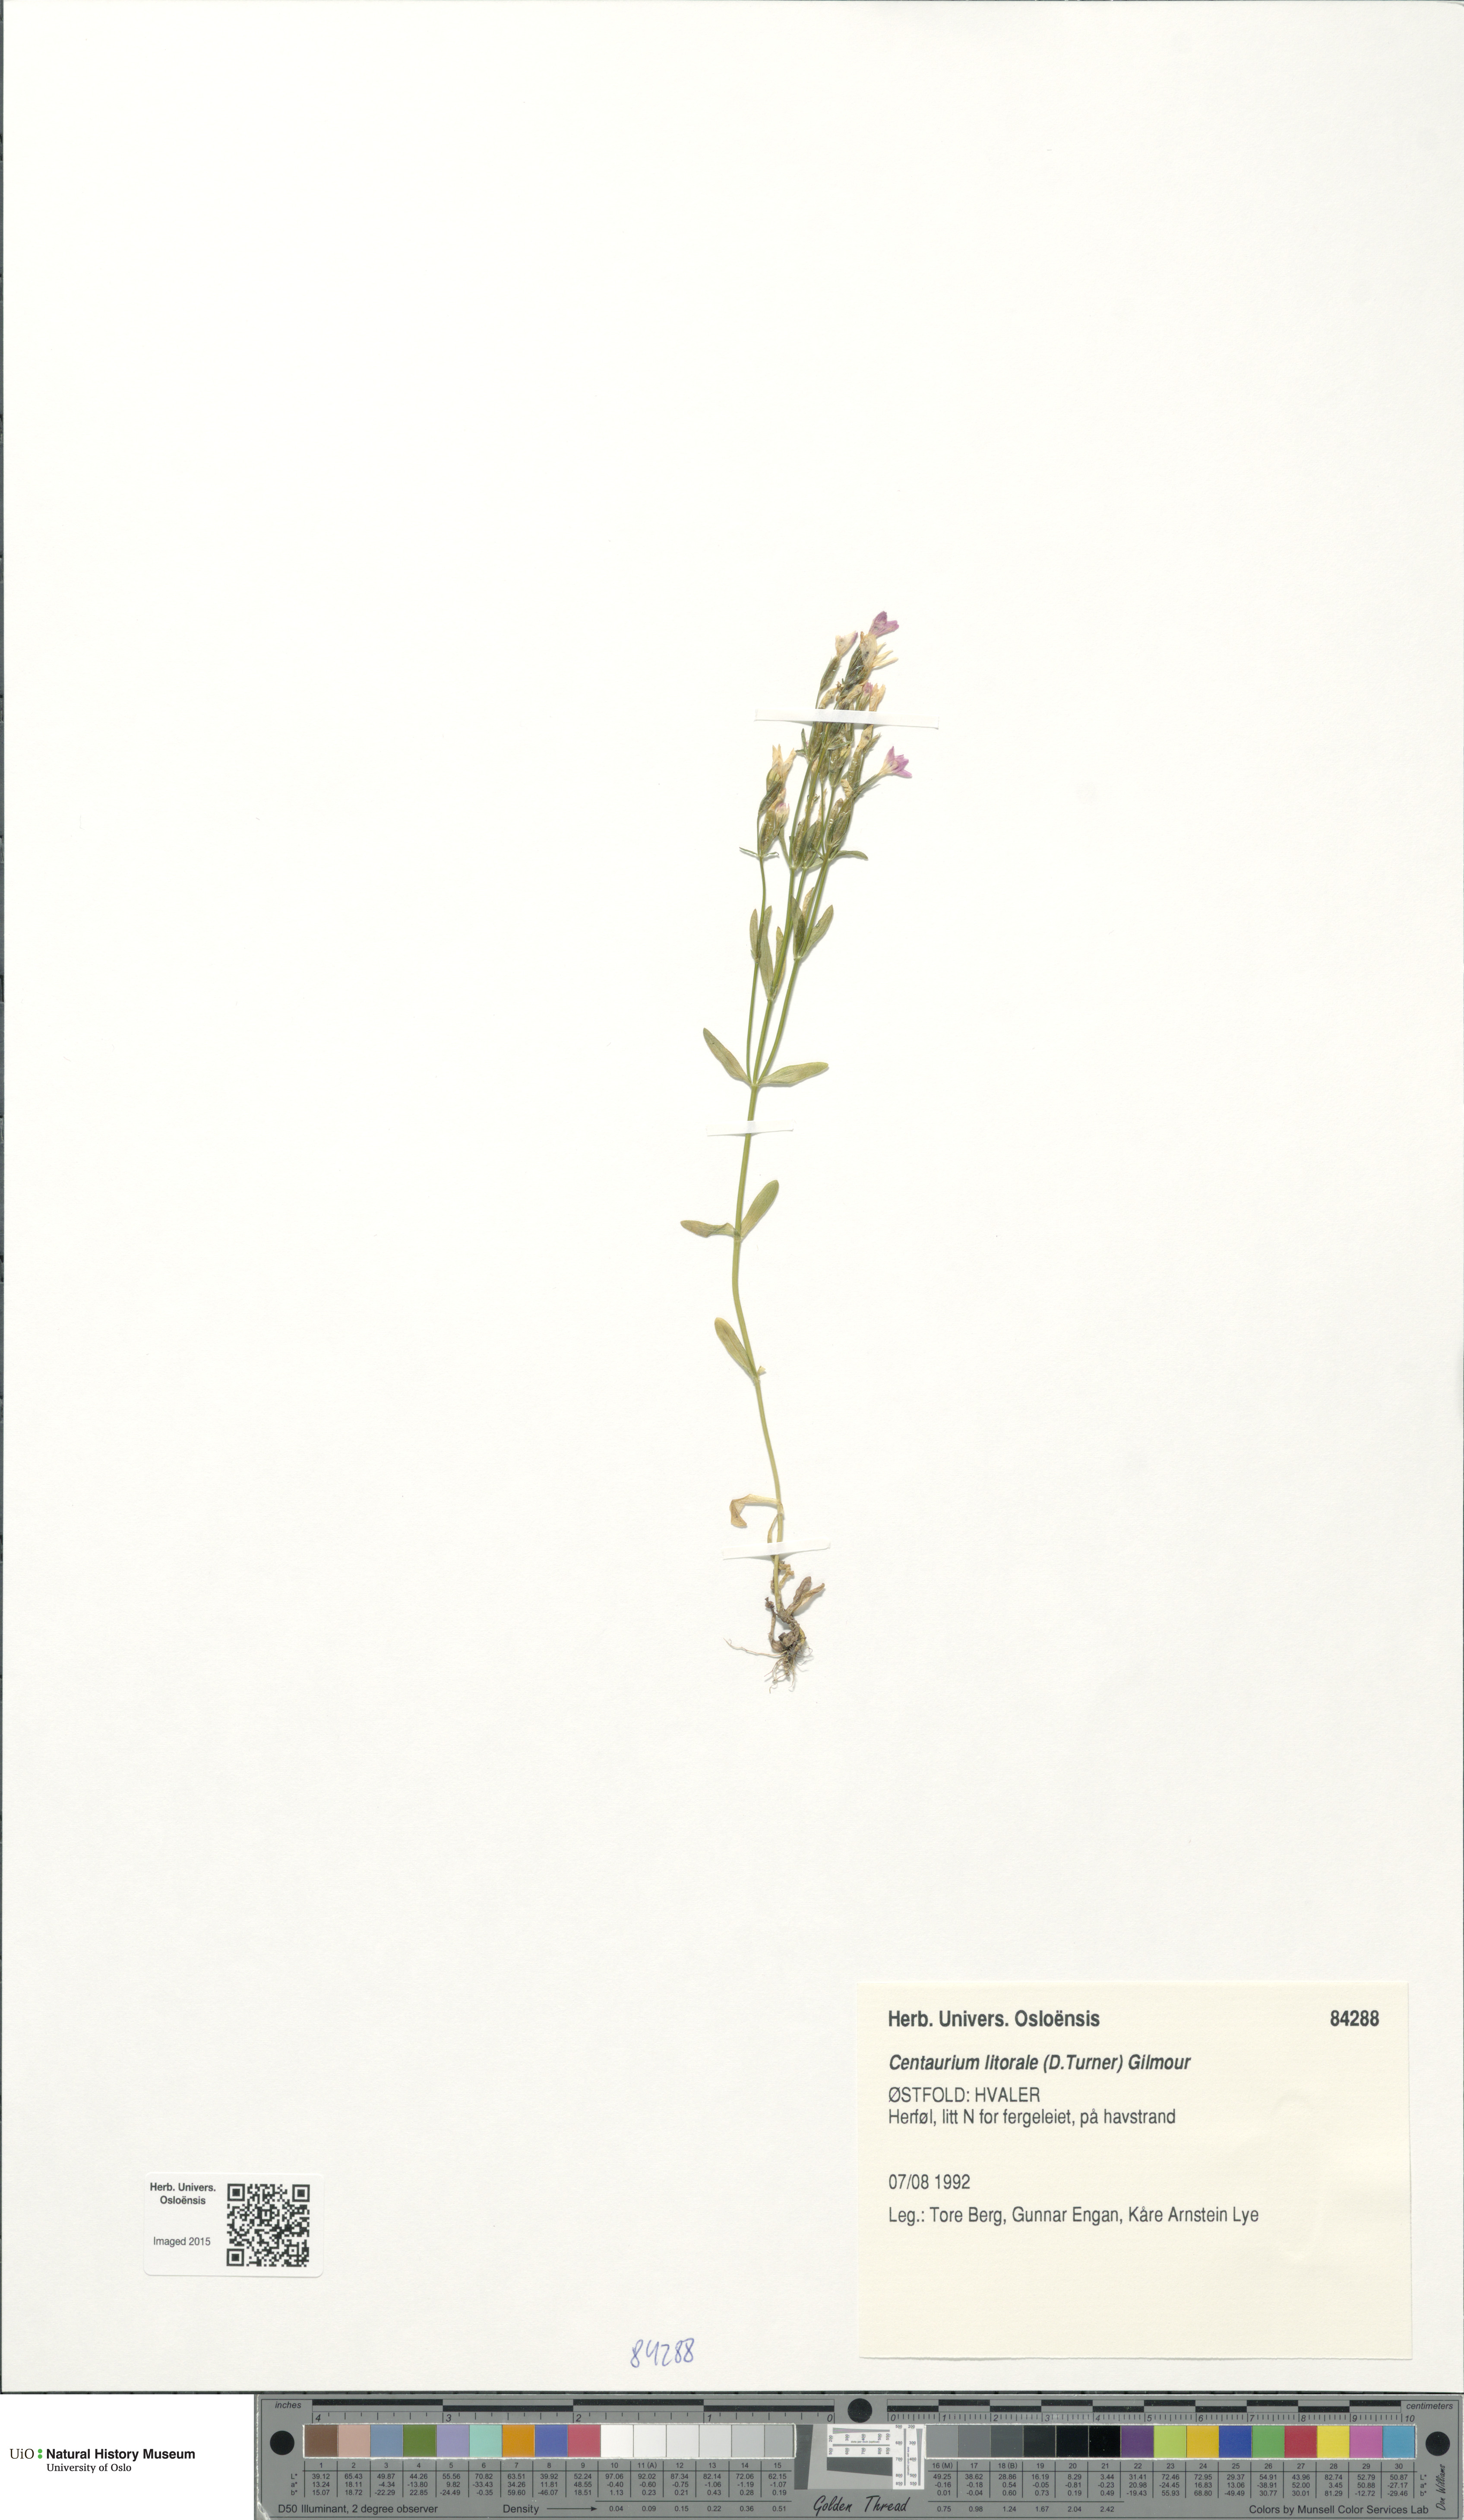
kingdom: Plantae
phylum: Tracheophyta
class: Magnoliopsida
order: Gentianales
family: Gentianaceae
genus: Centaurium
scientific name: Centaurium littorale
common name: Seaside centaury
